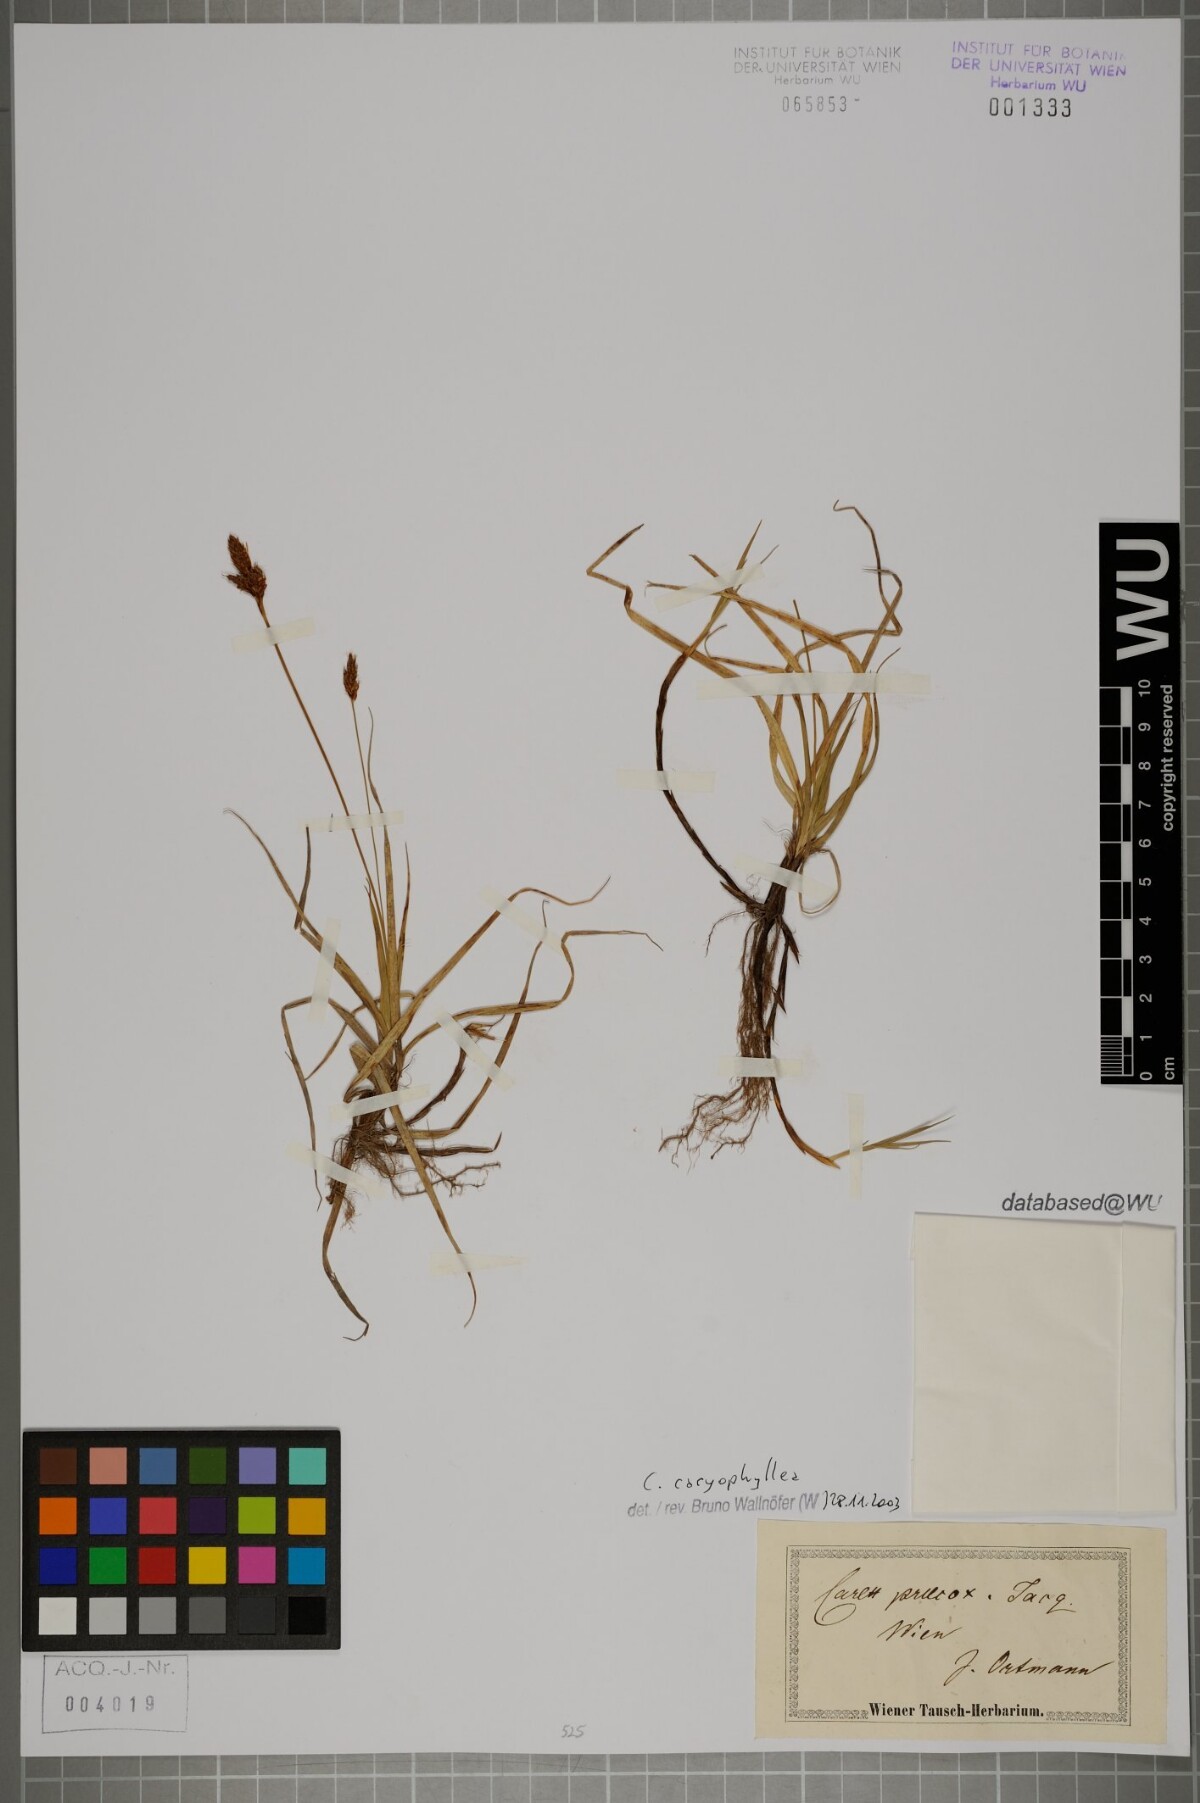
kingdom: Plantae
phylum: Tracheophyta
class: Liliopsida
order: Poales
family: Cyperaceae
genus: Carex
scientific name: Carex caryophyllea
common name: Spring sedge
